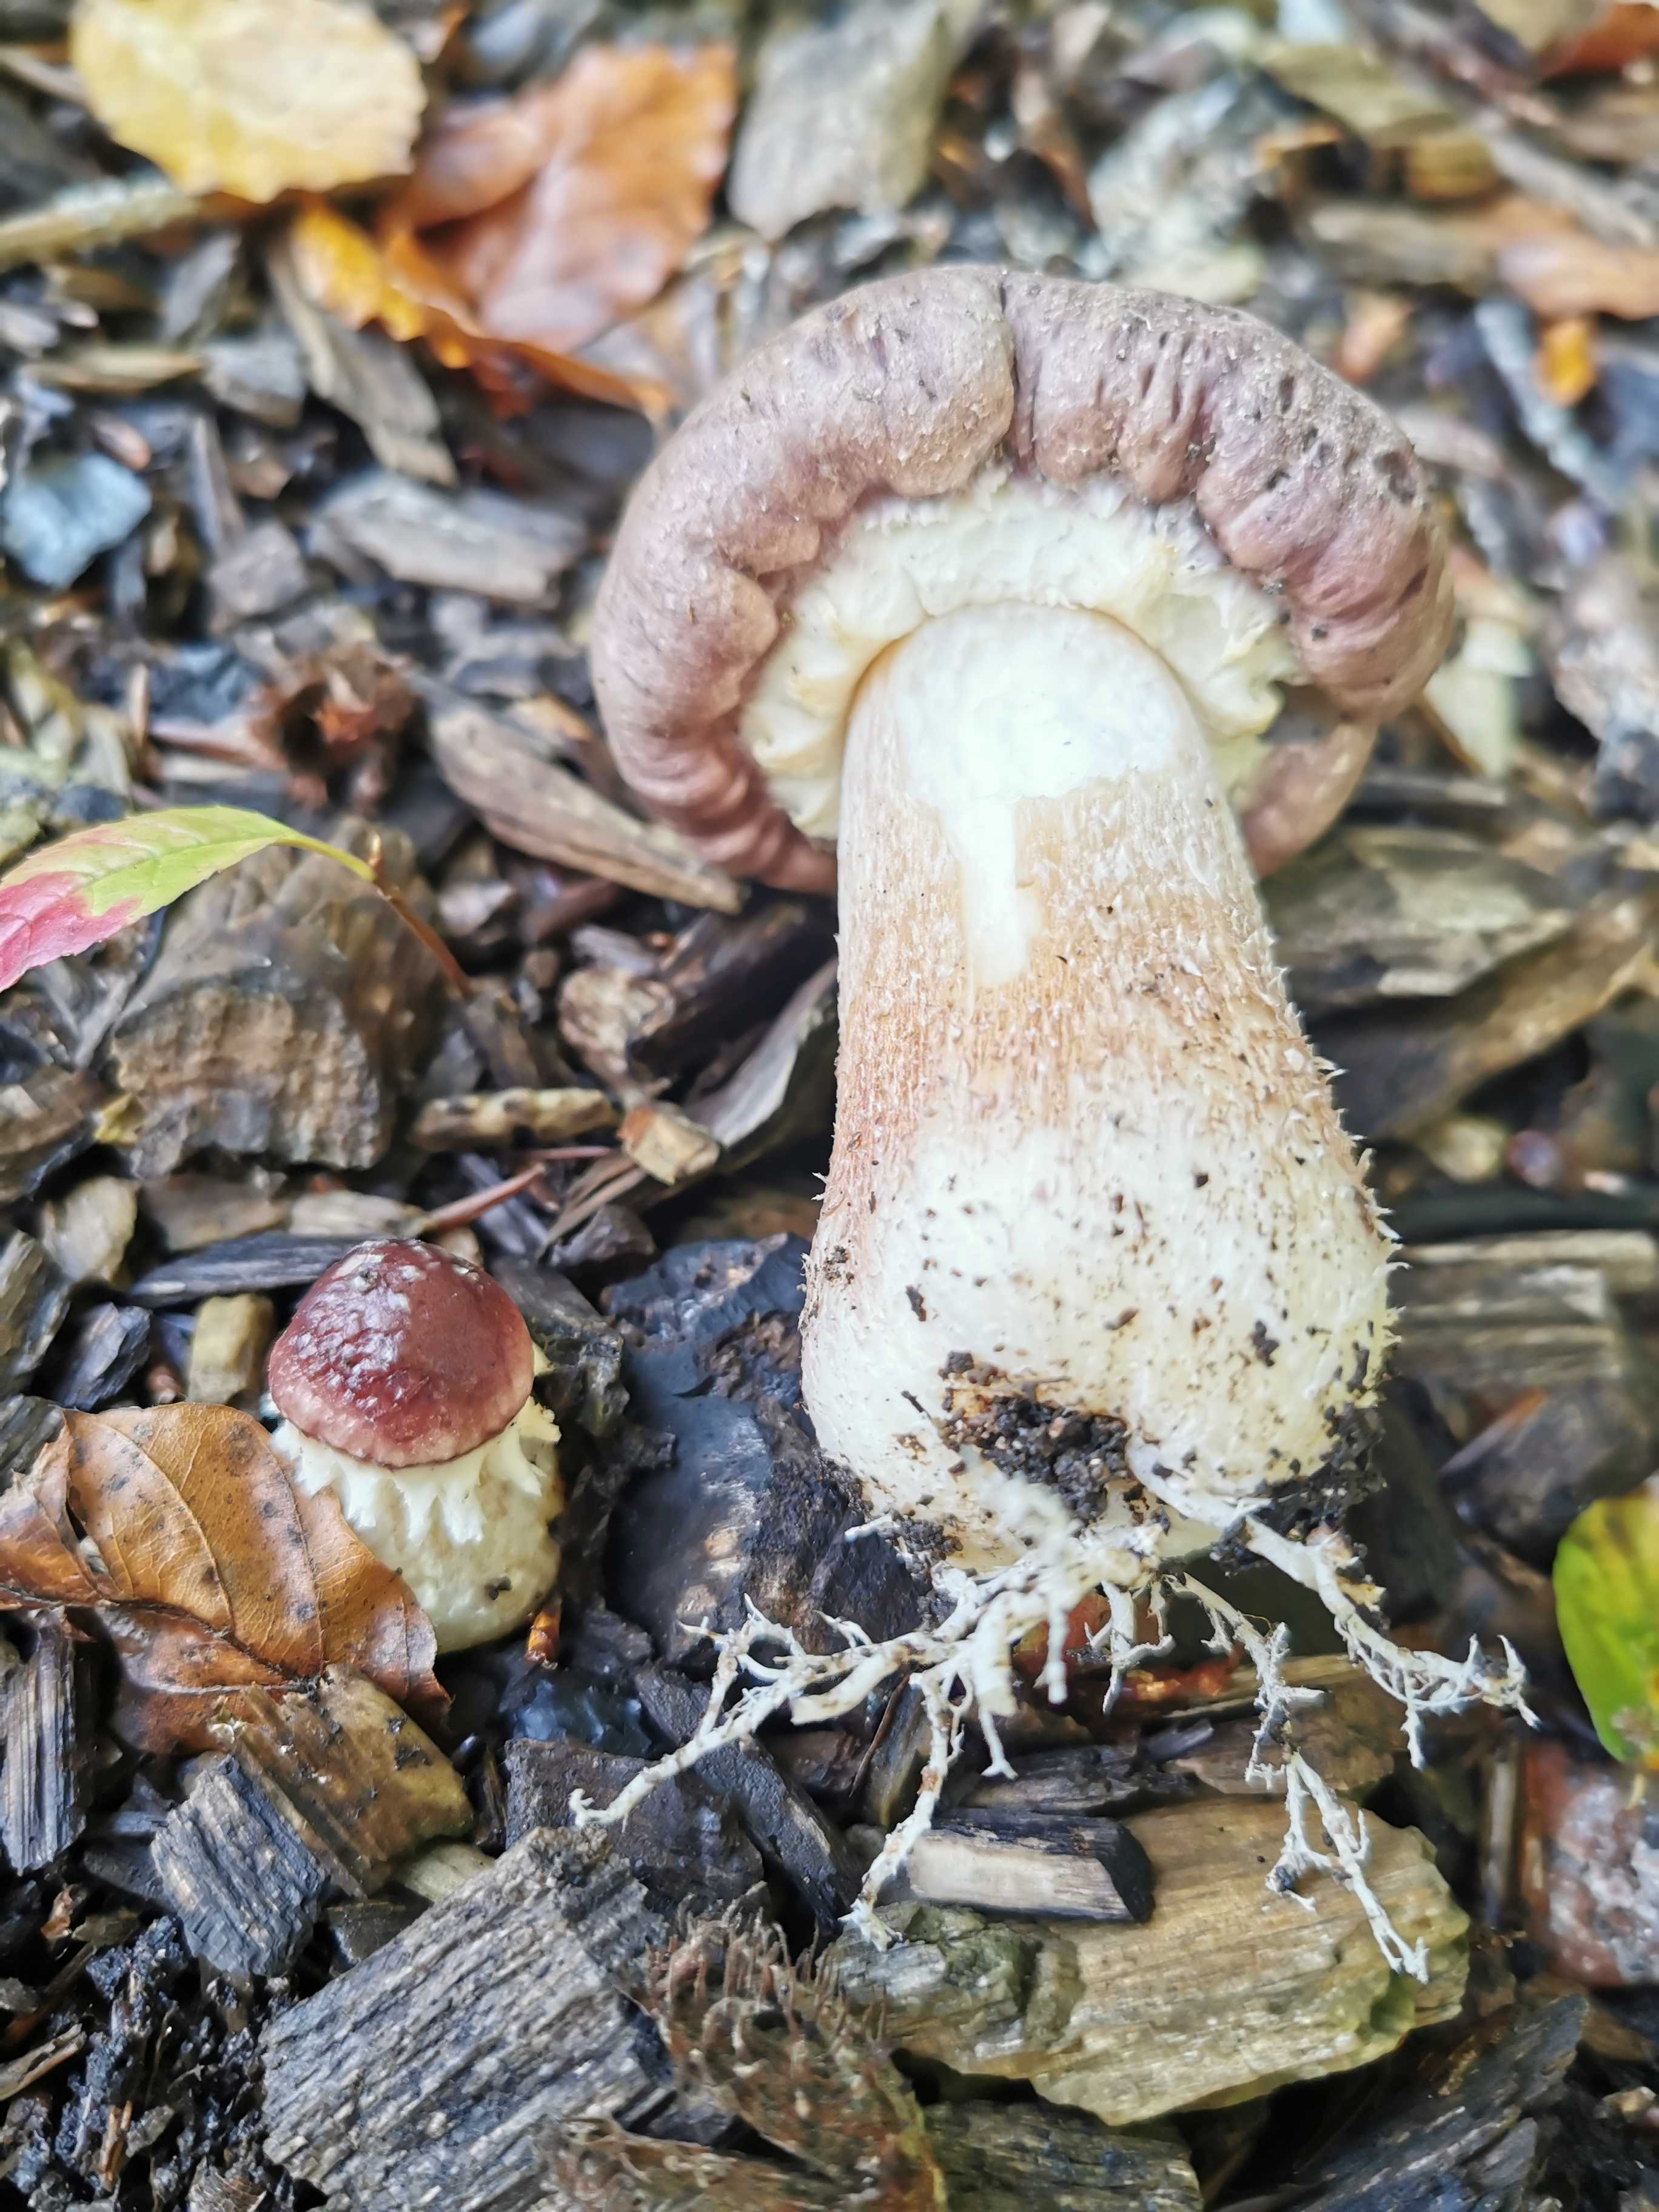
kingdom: Fungi
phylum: Basidiomycota
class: Agaricomycetes
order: Agaricales
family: Strophariaceae
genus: Stropharia
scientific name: Stropharia rugosoannulata
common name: rødbrun bredblad
